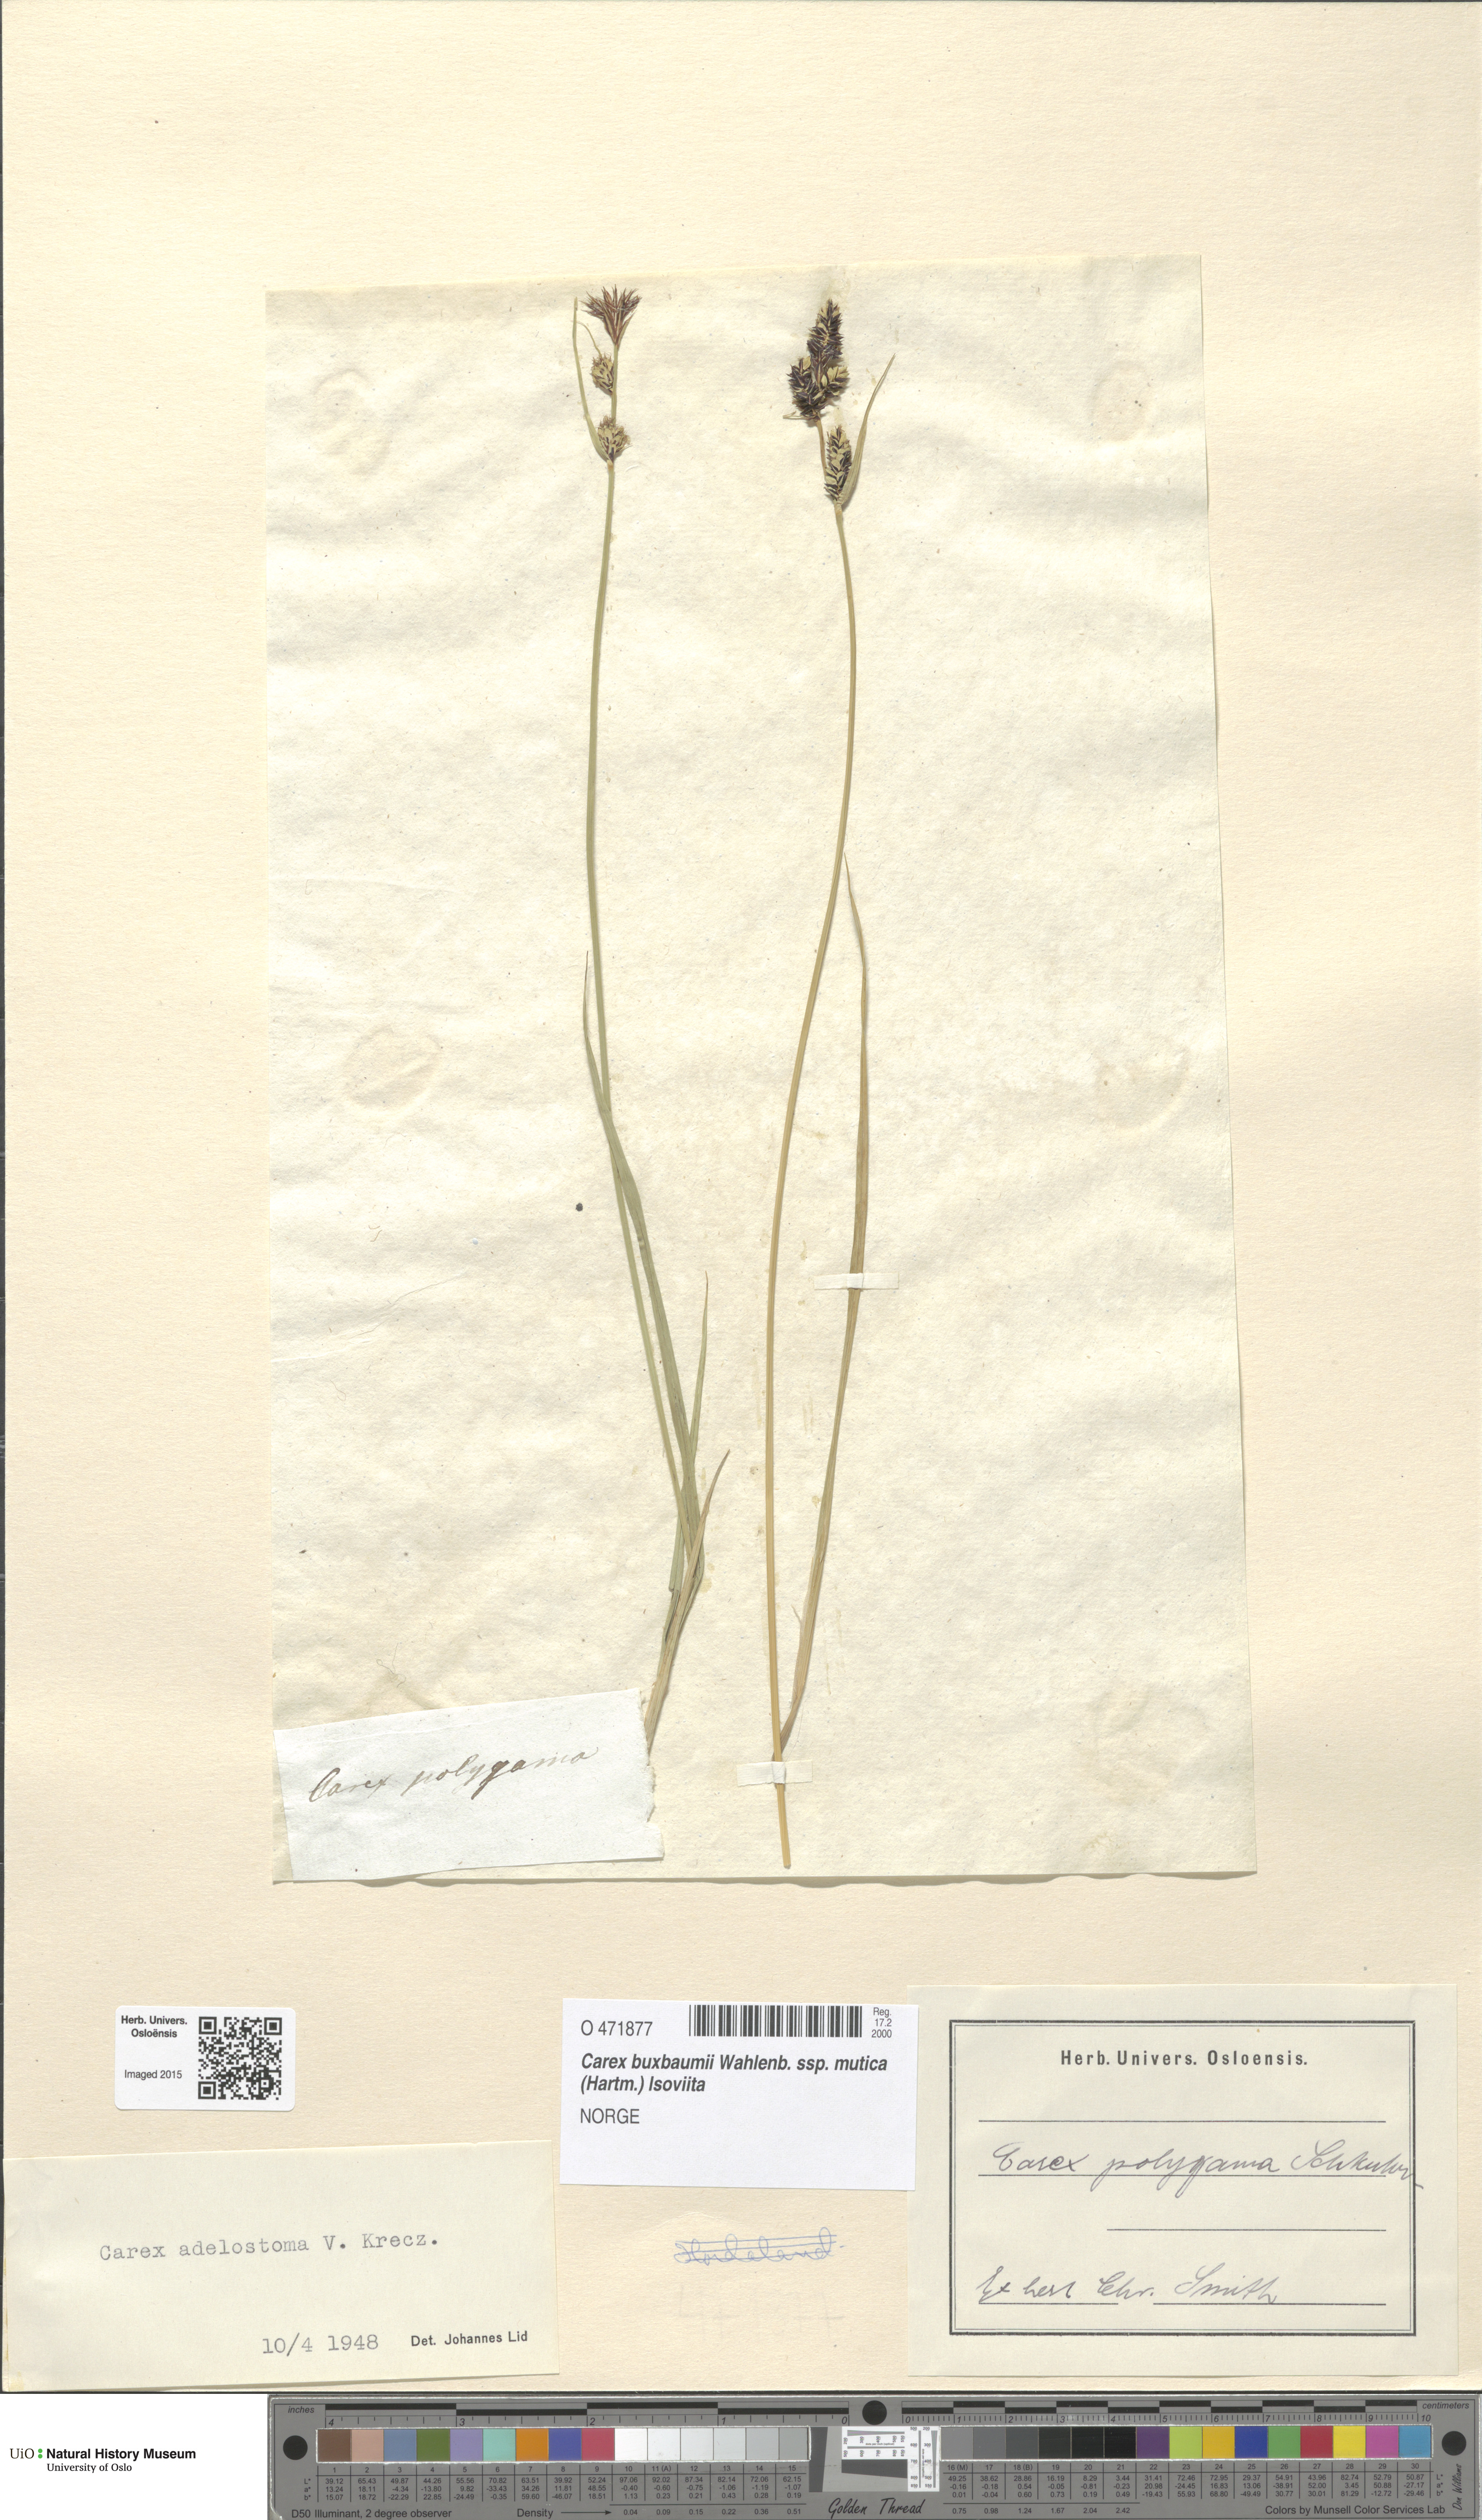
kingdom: Plantae
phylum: Tracheophyta
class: Liliopsida
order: Poales
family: Cyperaceae
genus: Carex
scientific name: Carex adelostoma
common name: Circumpolar sedge
